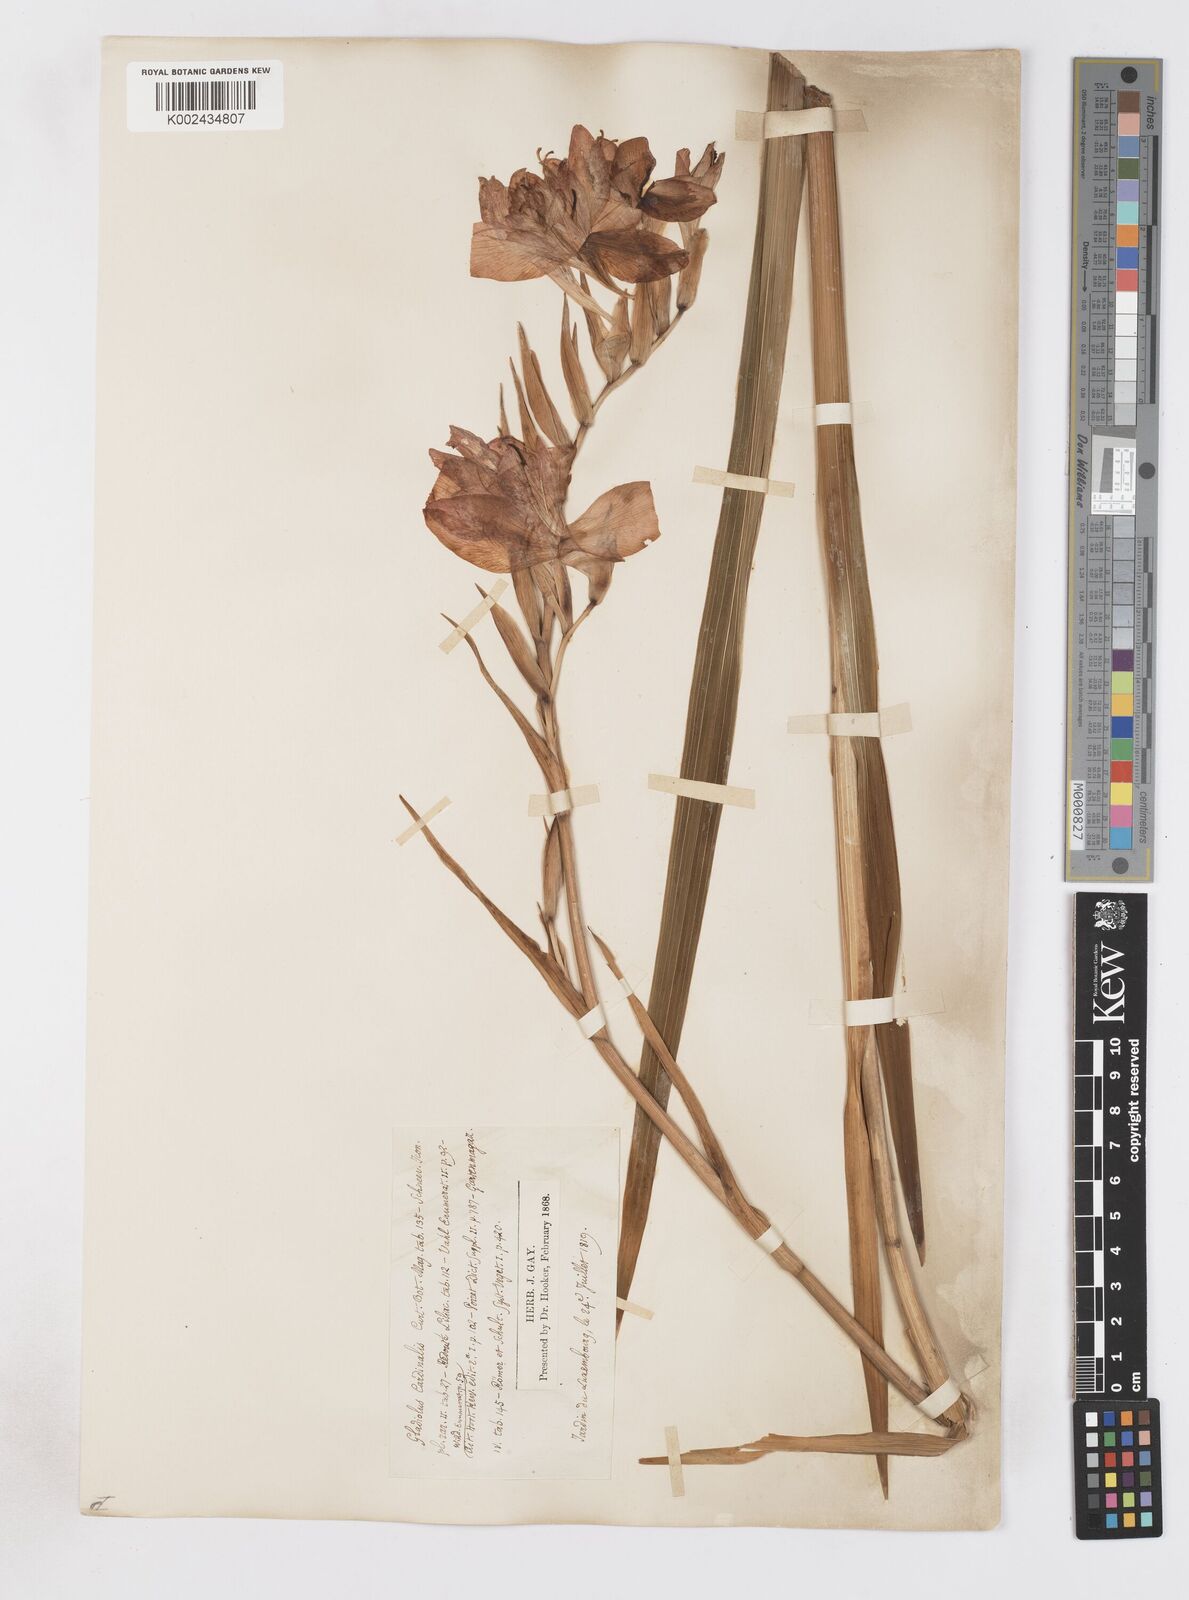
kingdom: Plantae
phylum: Tracheophyta
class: Liliopsida
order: Asparagales
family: Iridaceae
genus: Gladiolus
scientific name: Gladiolus cardinalis
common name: New year-lily
